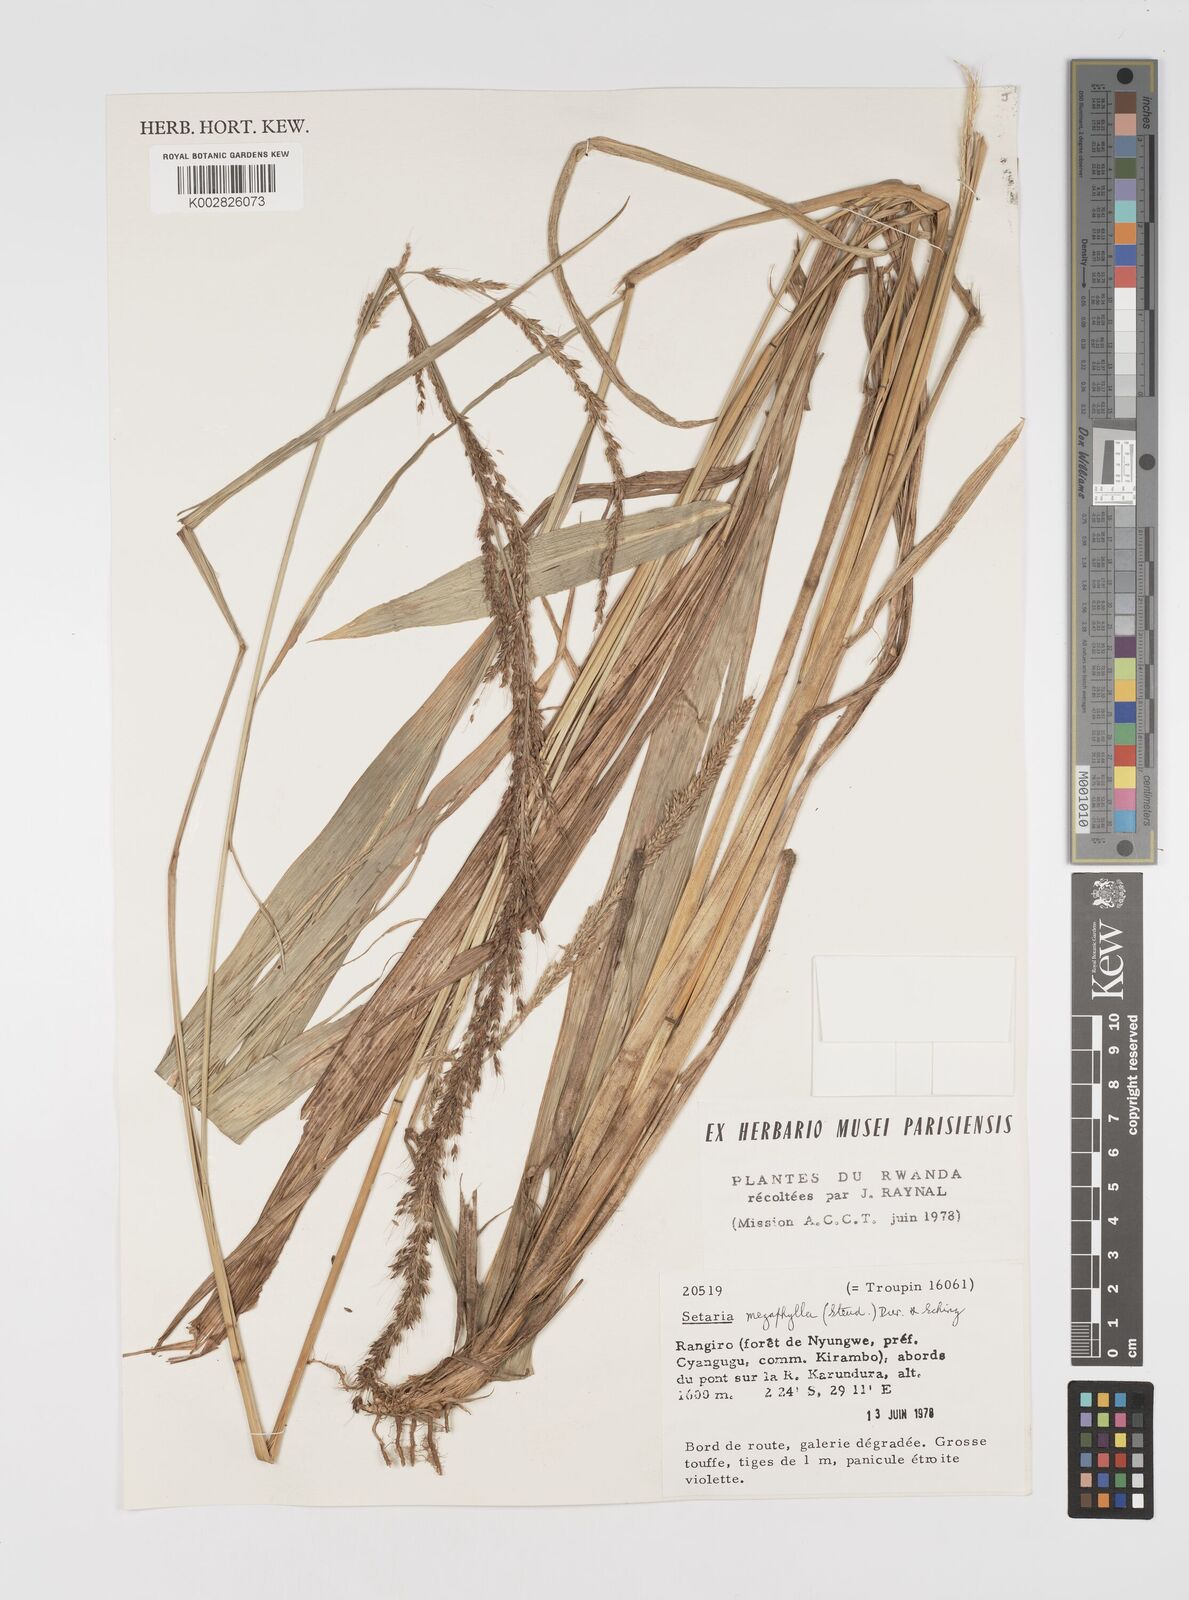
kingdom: Plantae
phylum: Tracheophyta
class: Liliopsida
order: Poales
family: Poaceae
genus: Setaria
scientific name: Setaria megaphylla
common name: Bigleaf bristlegrass
